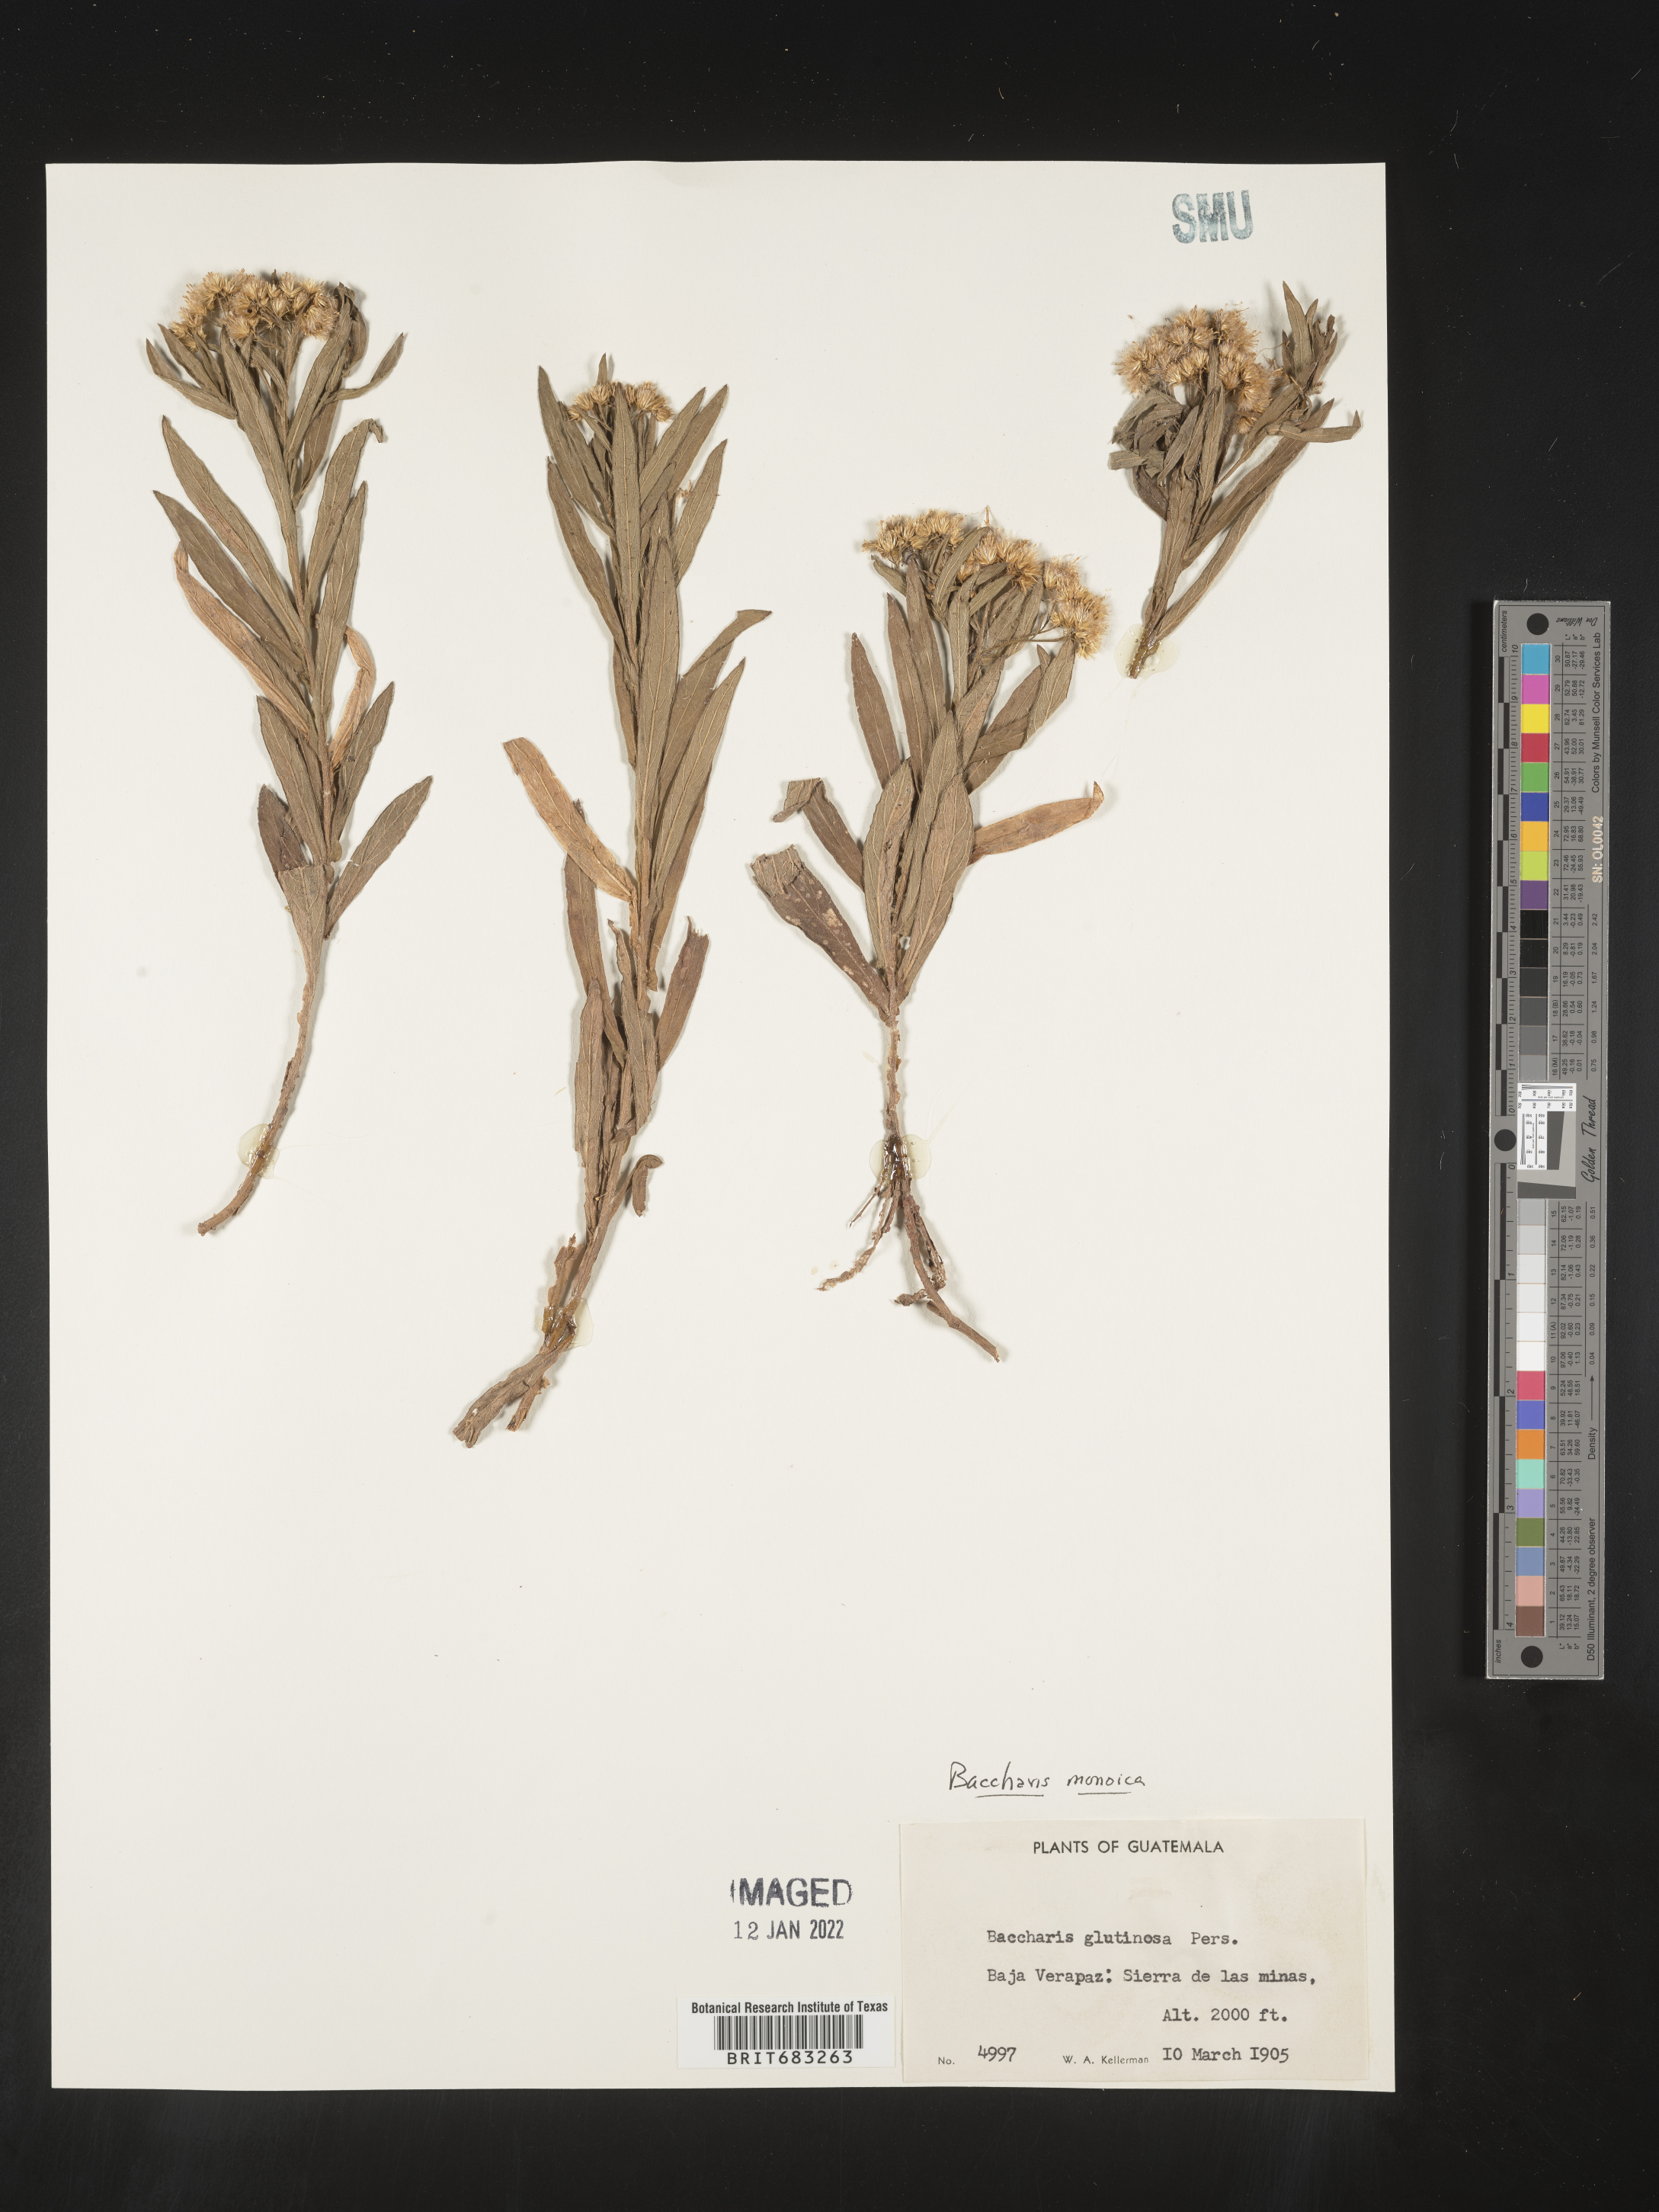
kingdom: Plantae
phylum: Tracheophyta
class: Magnoliopsida
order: Asterales
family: Asteraceae
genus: Baccharis
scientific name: Baccharis salicifolia
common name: Sticky baccharis
